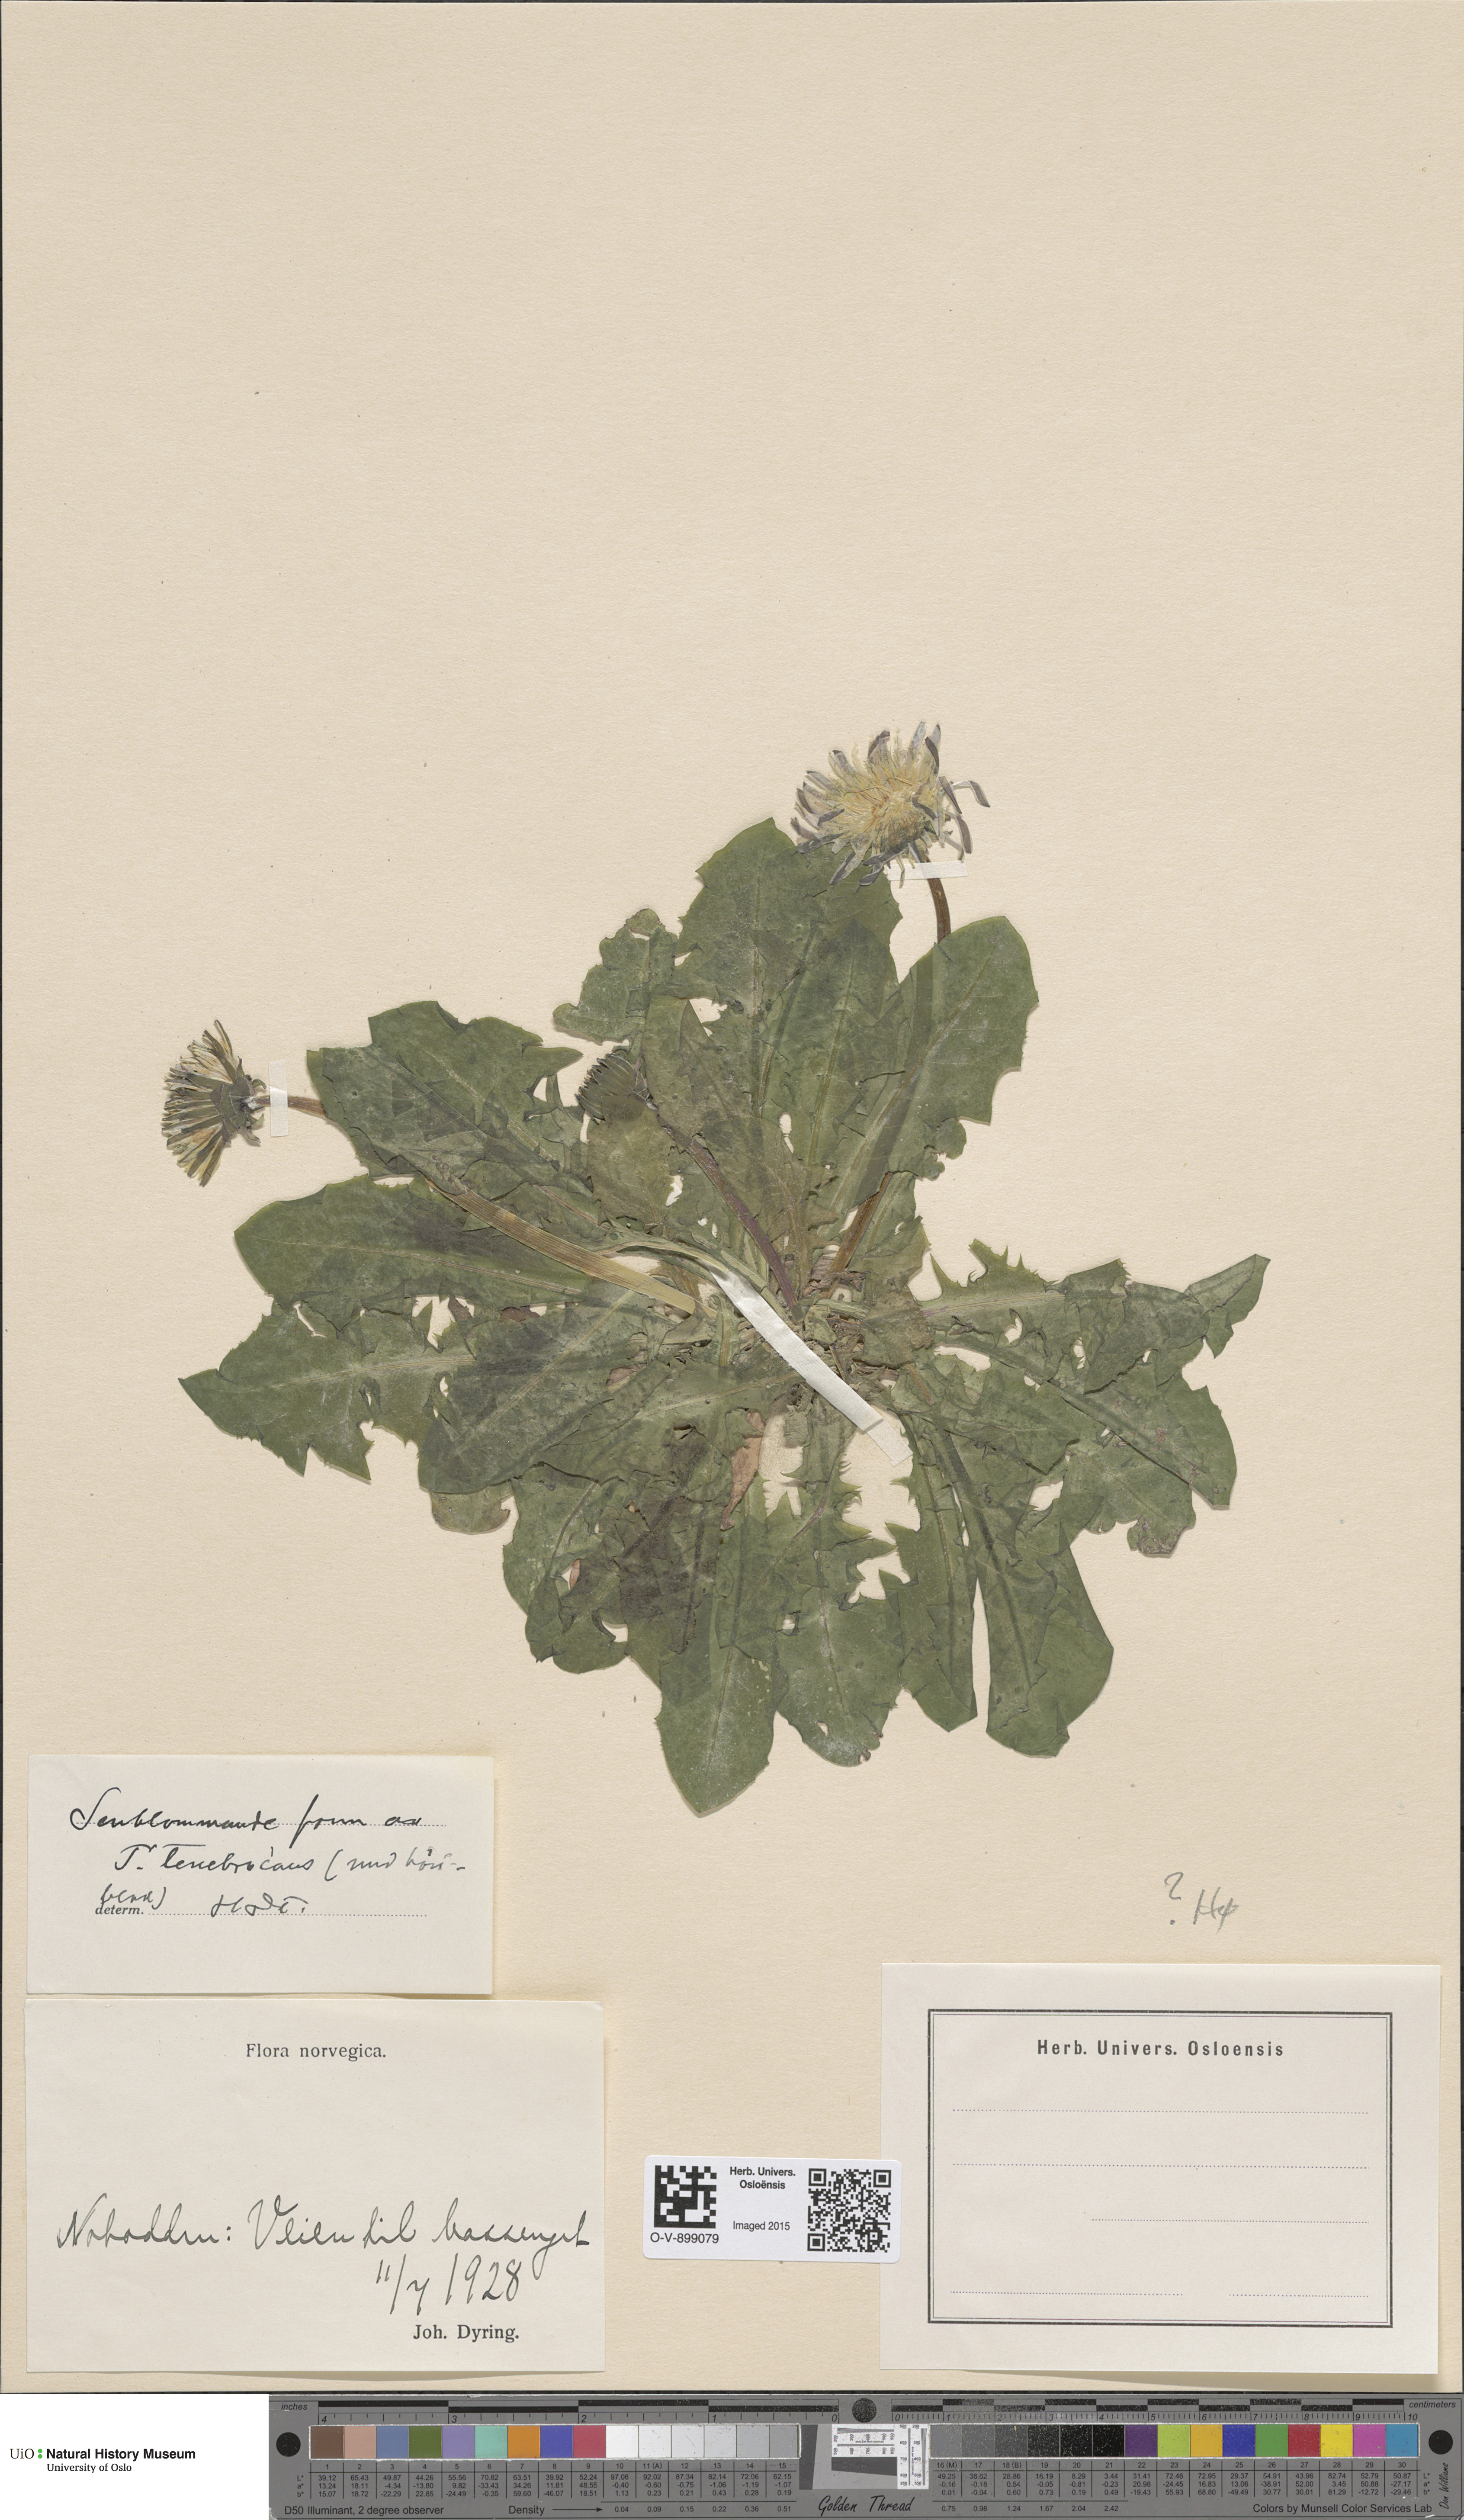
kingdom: Plantae
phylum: Tracheophyta
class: Magnoliopsida
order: Asterales
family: Asteraceae
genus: Taraxacum
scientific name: Taraxacum tenebricans
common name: Shiny-leaved dandelion
